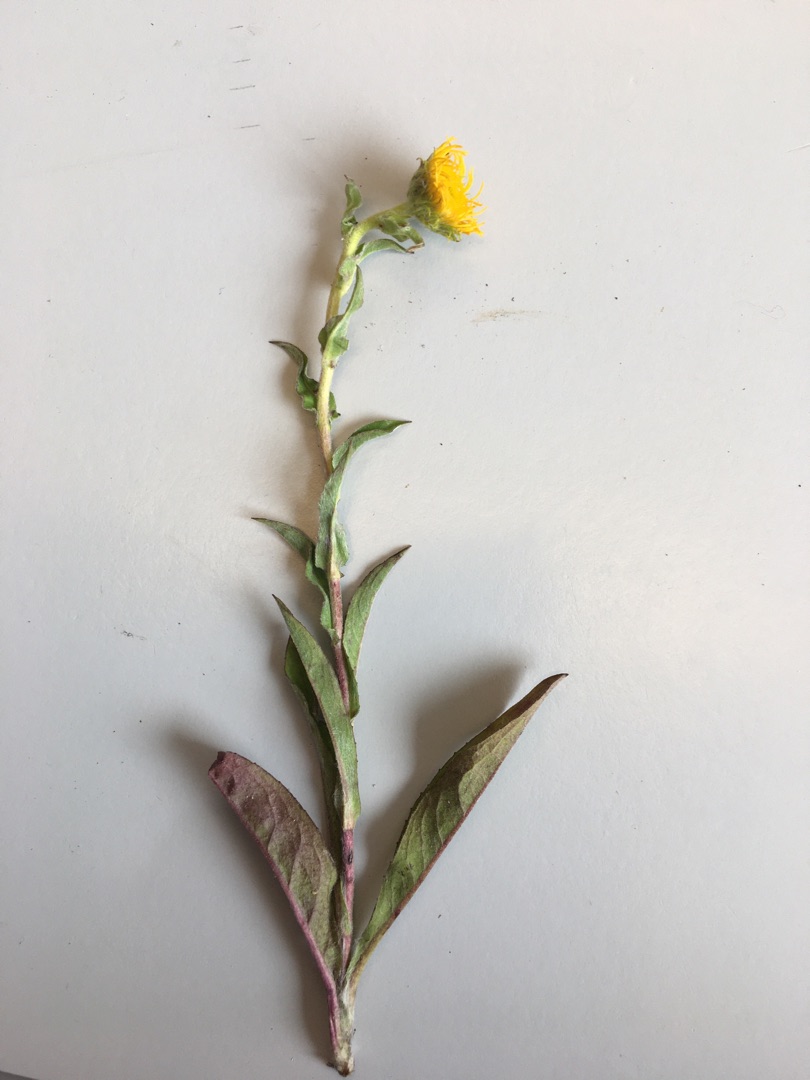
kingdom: Plantae
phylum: Tracheophyta
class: Magnoliopsida
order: Asterales
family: Asteraceae
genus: Pentanema
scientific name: Pentanema britannicum
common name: Soløje-alant
